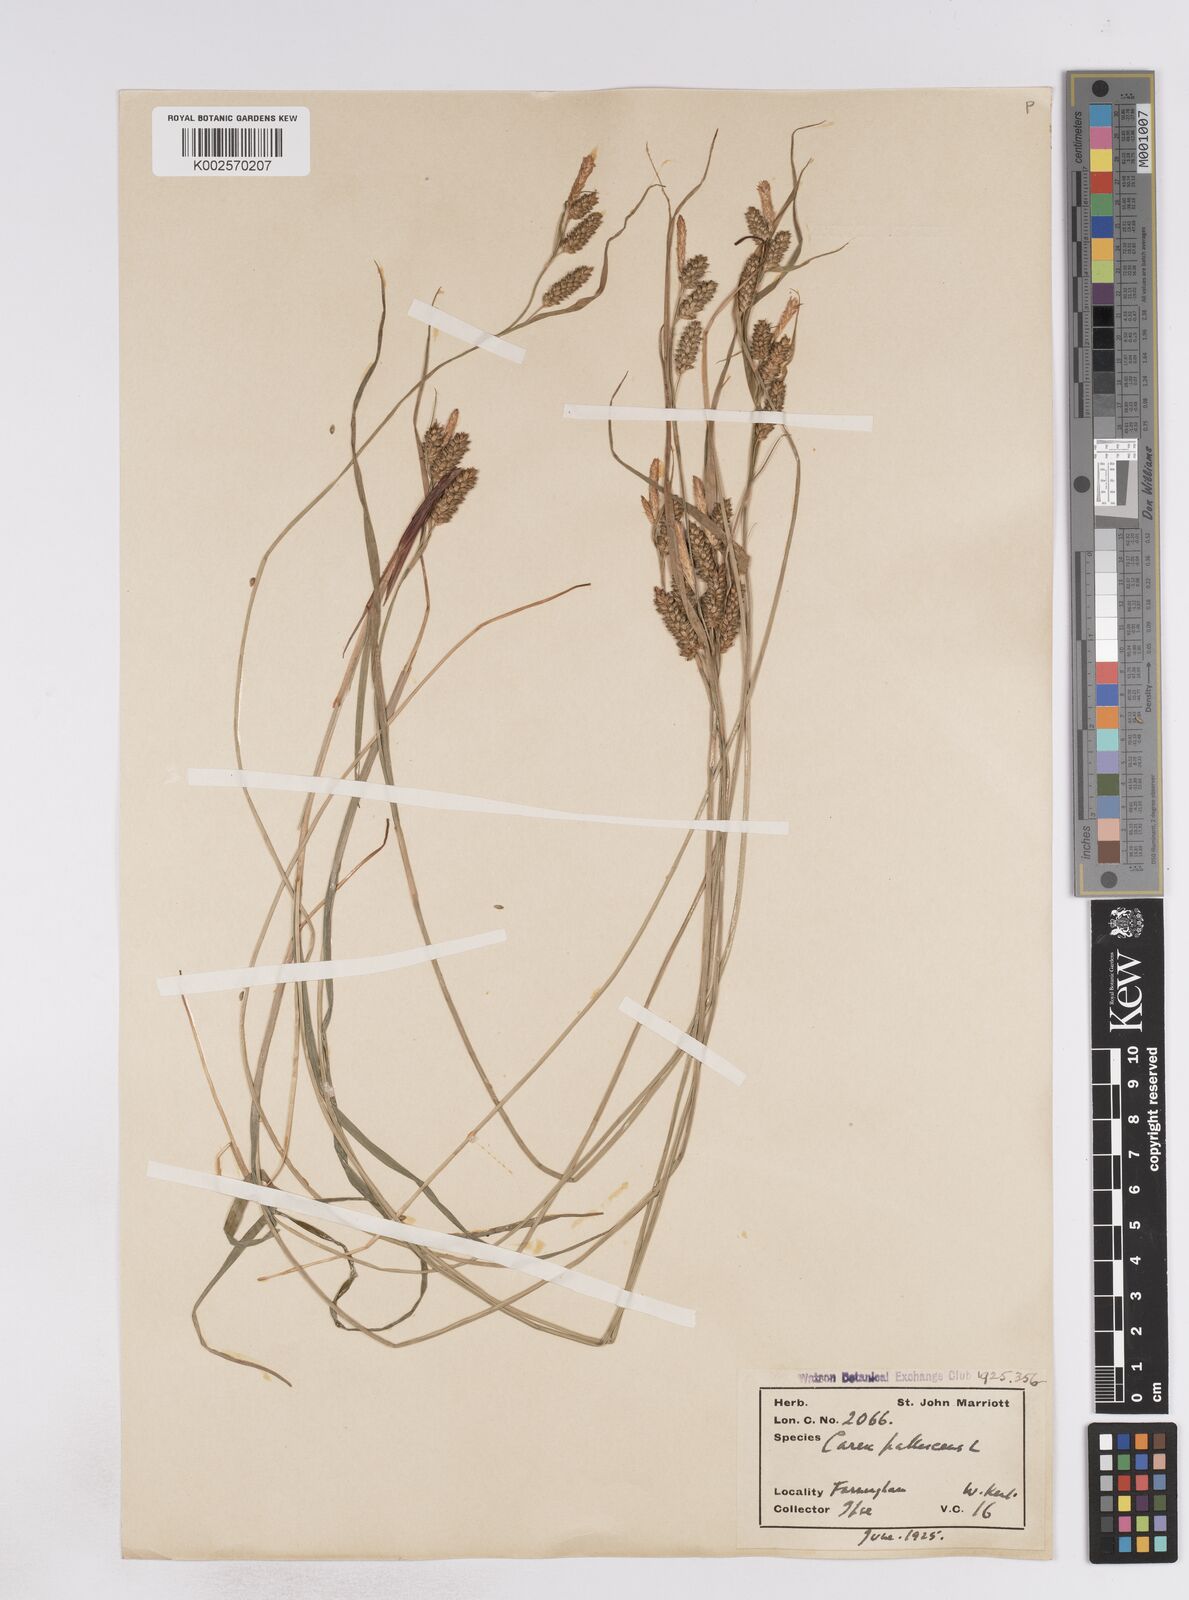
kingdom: Plantae
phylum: Tracheophyta
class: Liliopsida
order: Poales
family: Cyperaceae
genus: Carex
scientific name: Carex pallescens
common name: Pale sedge
